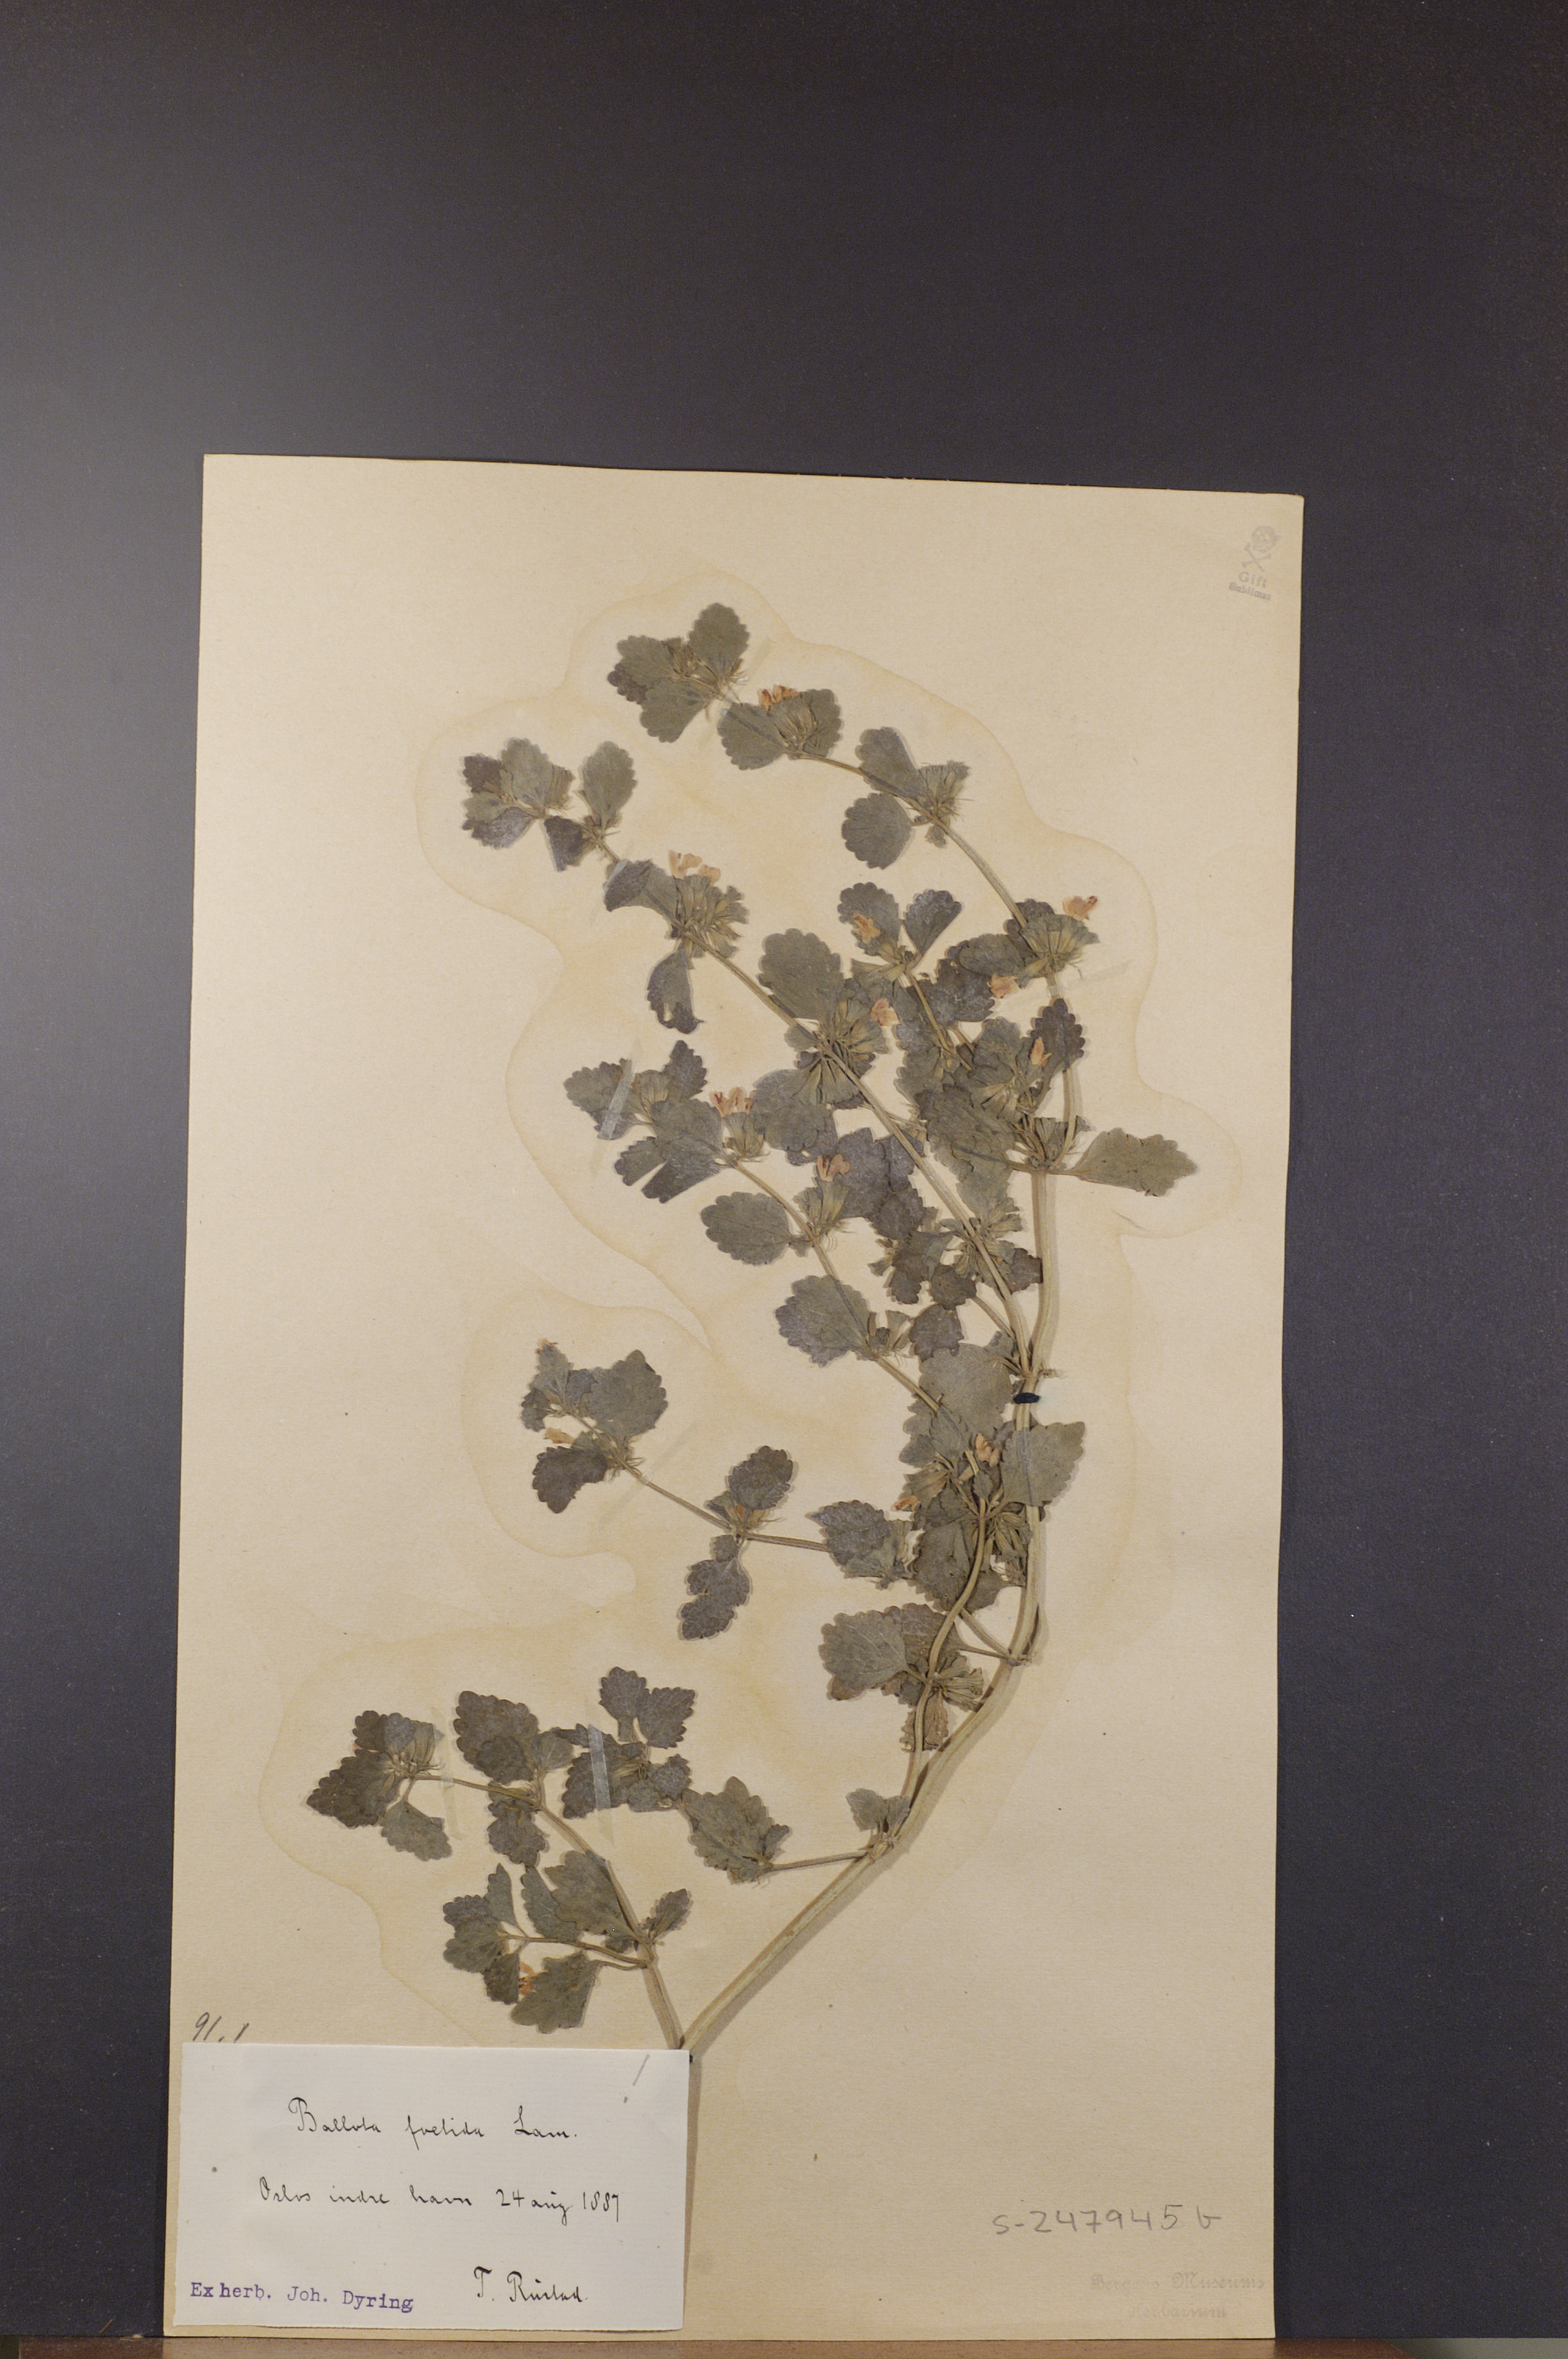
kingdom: Plantae
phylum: Tracheophyta
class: Magnoliopsida
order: Lamiales
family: Lamiaceae
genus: Ballota
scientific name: Ballota nigra
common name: Black horehound
